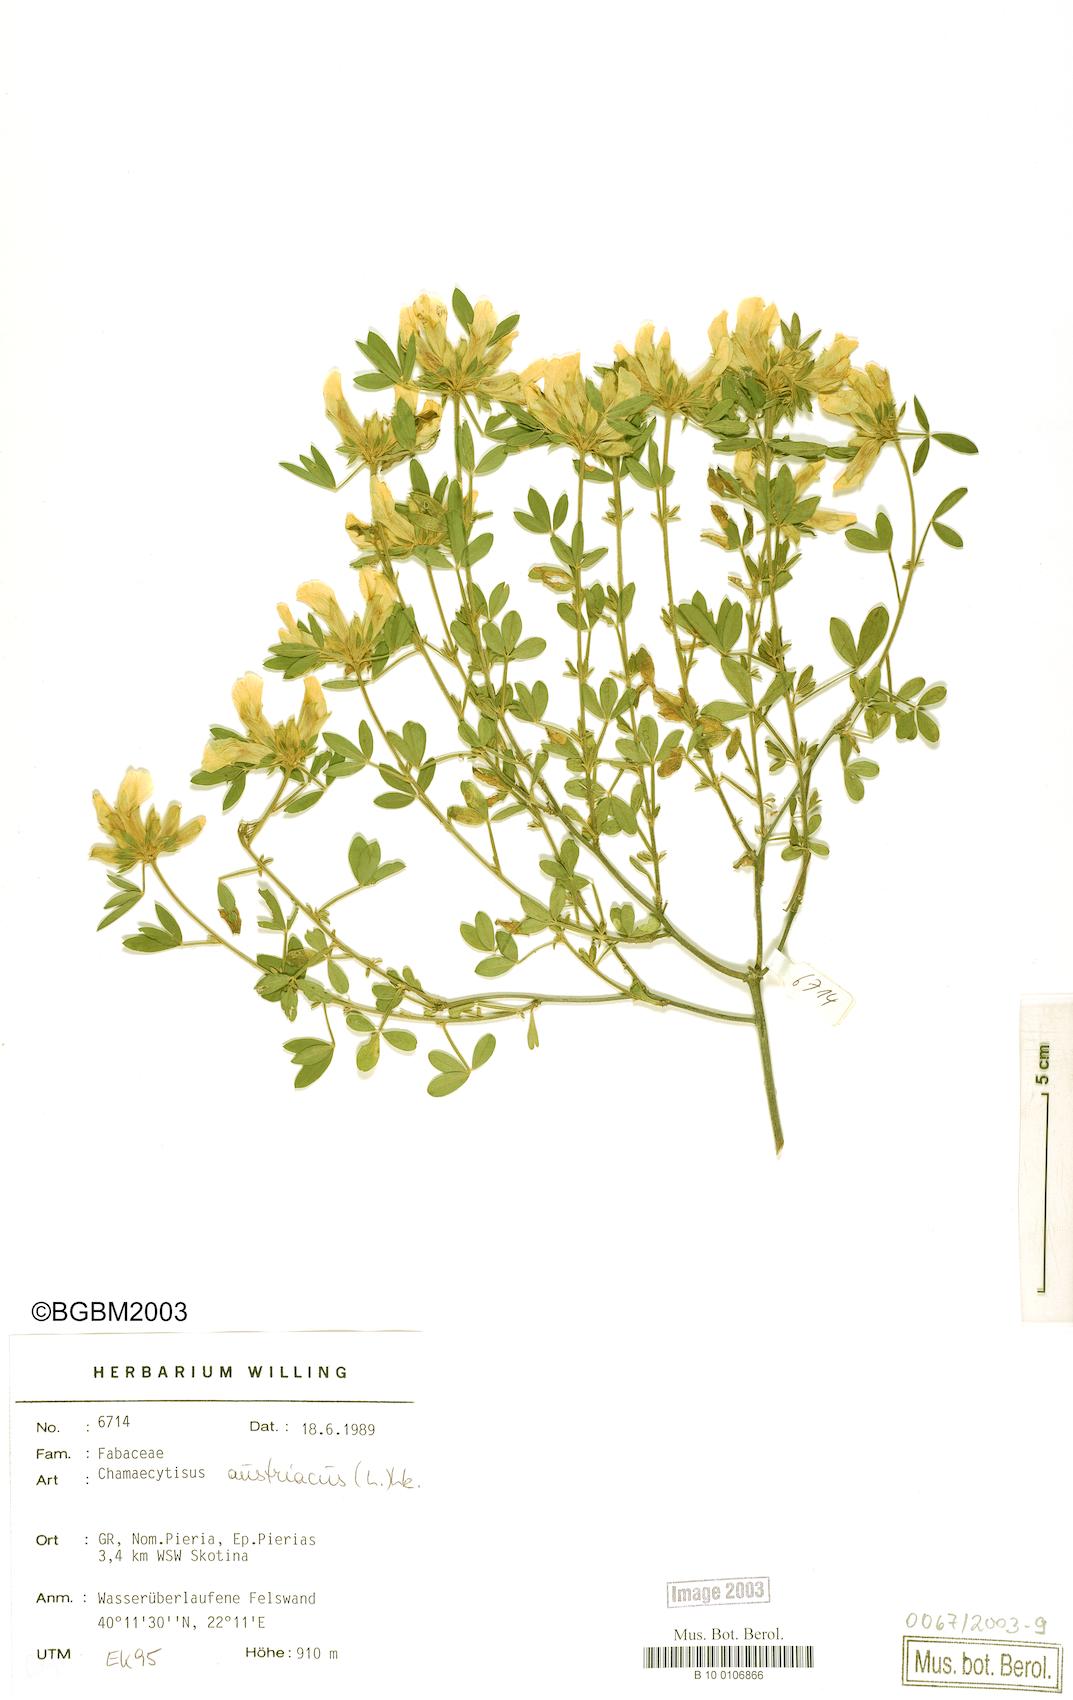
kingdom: Plantae
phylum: Tracheophyta
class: Magnoliopsida
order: Fabales
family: Fabaceae
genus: Chamaecytisus
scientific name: Chamaecytisus austriacus
